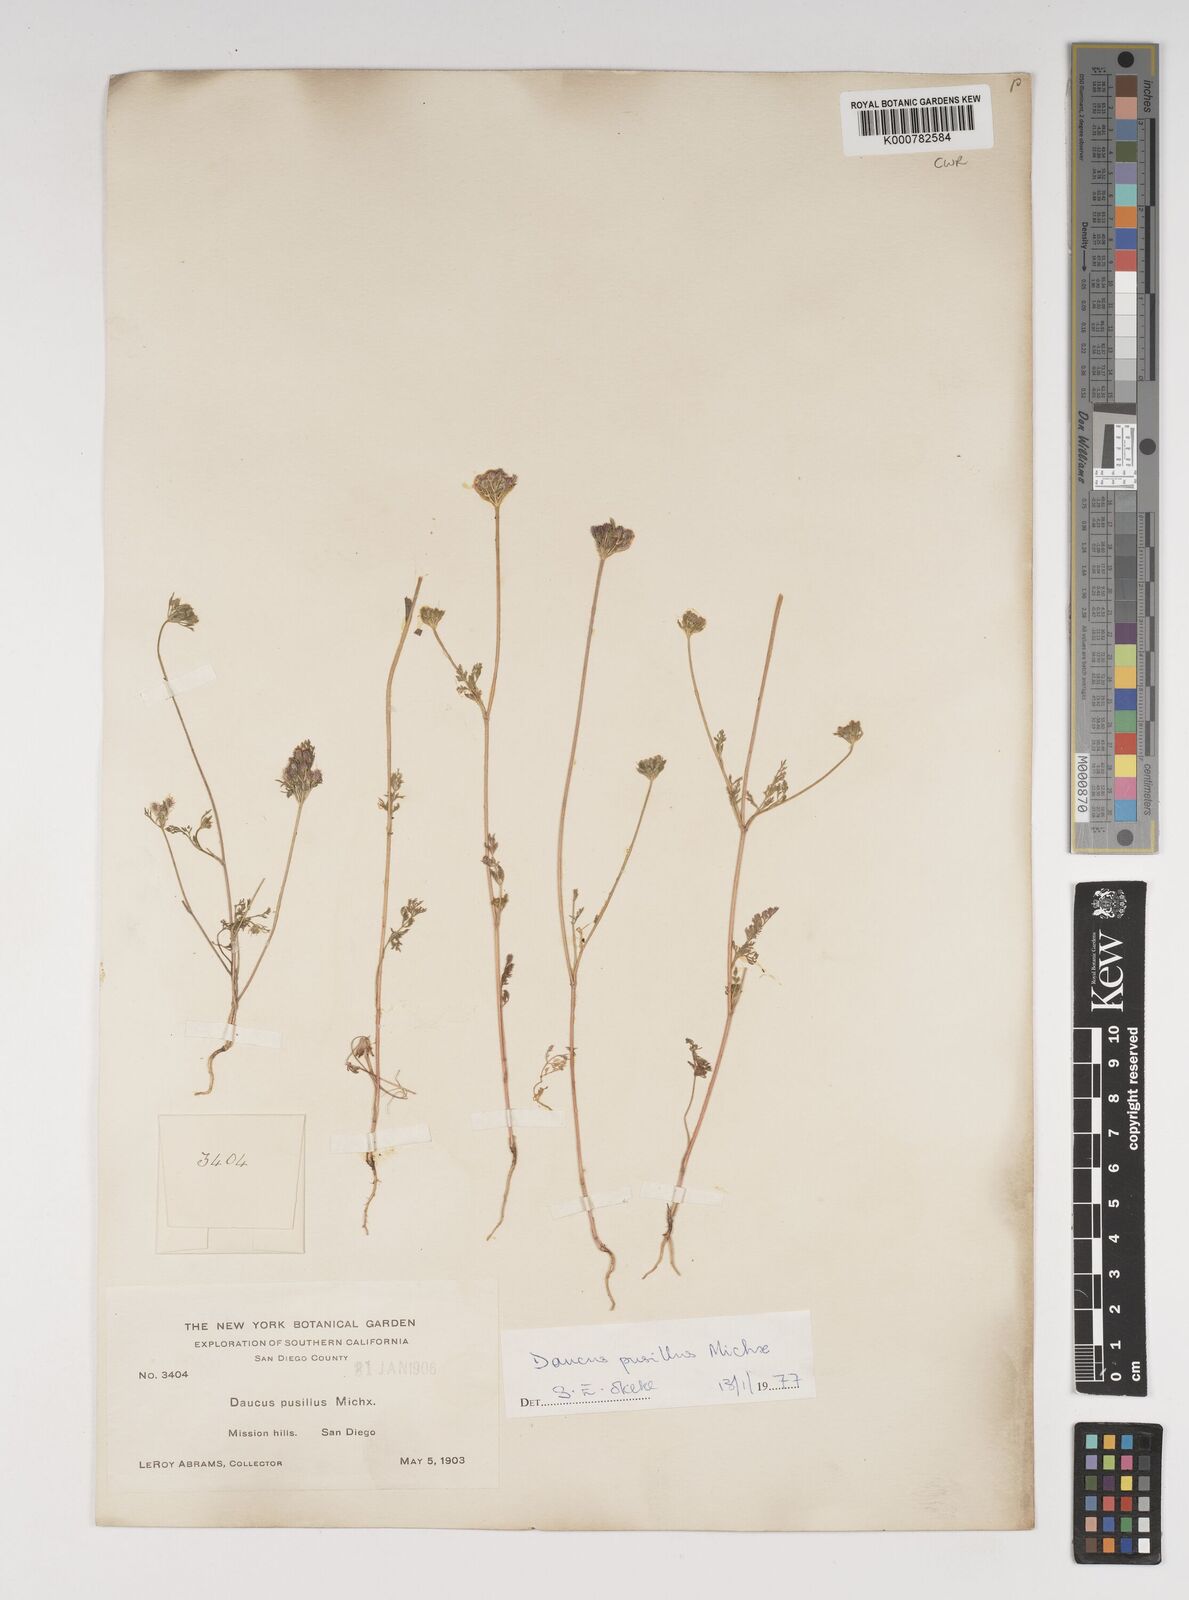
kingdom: Plantae
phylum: Tracheophyta
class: Magnoliopsida
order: Apiales
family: Apiaceae
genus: Daucus
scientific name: Daucus pusillus
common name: Southwest wild carrot
